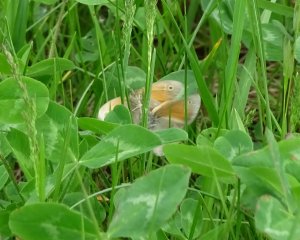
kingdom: Animalia
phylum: Arthropoda
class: Insecta
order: Lepidoptera
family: Nymphalidae
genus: Coenonympha
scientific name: Coenonympha tullia
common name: Large Heath
